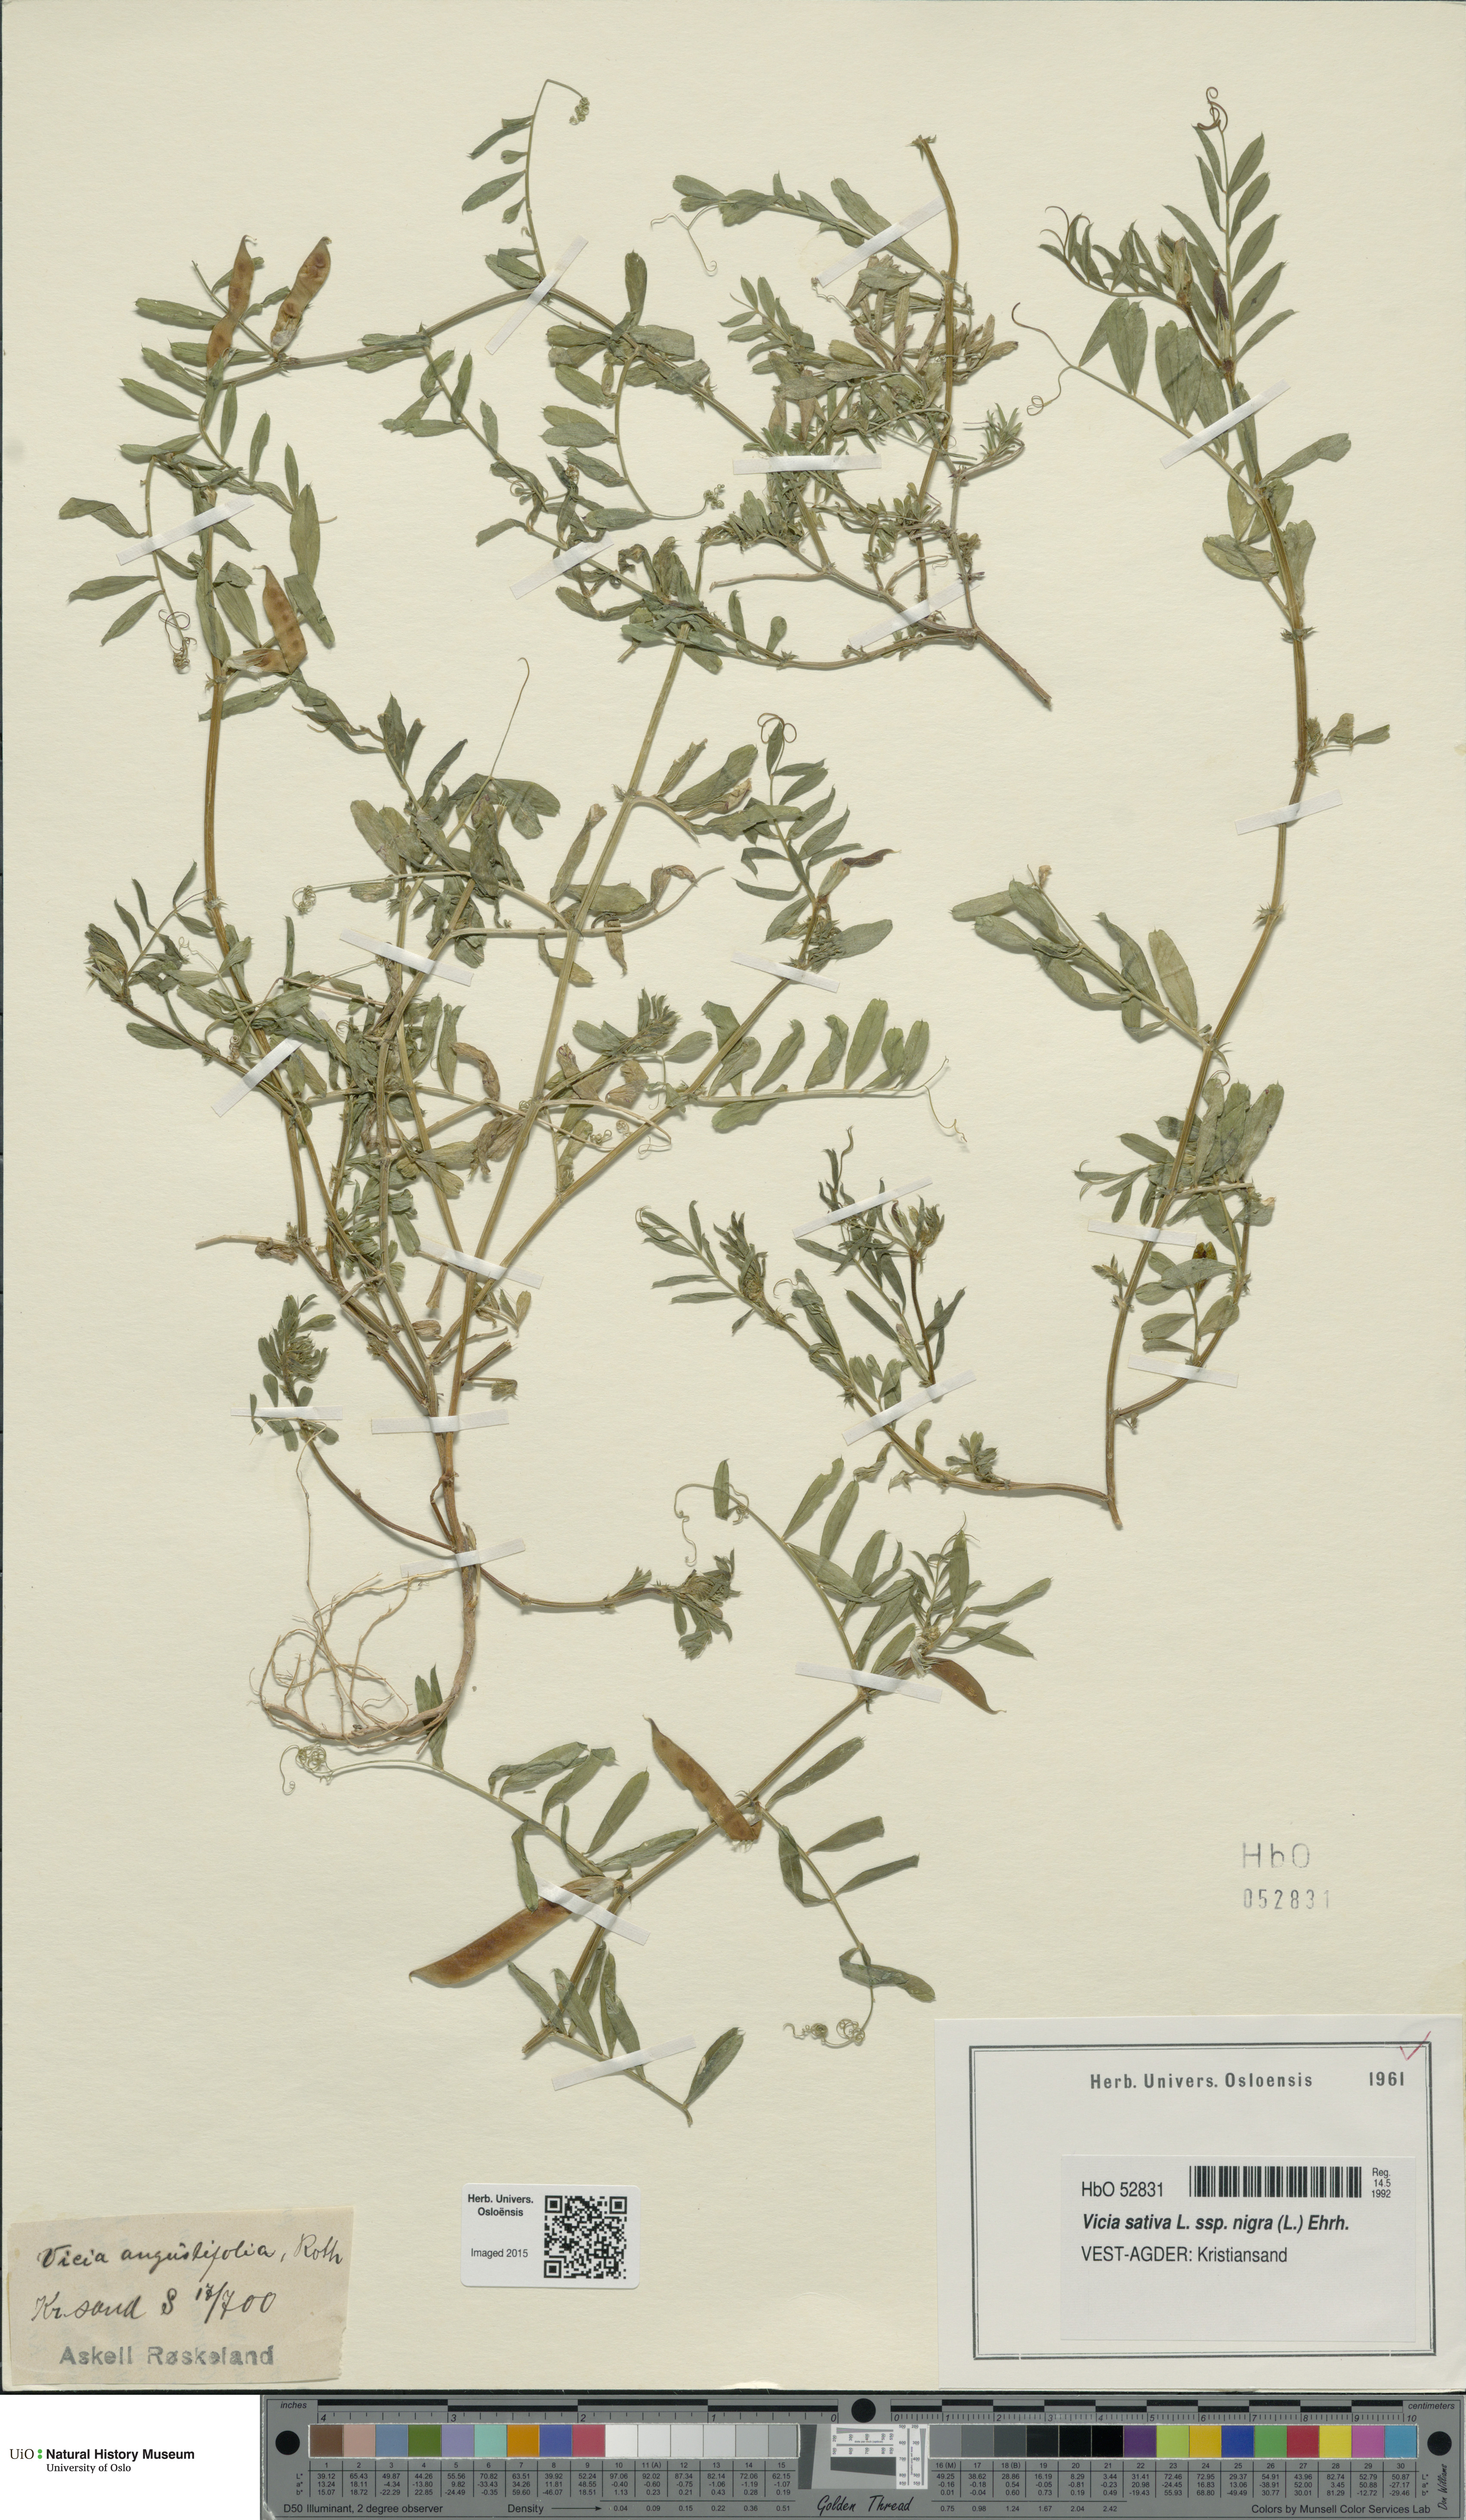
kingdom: Plantae
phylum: Tracheophyta
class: Magnoliopsida
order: Fabales
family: Fabaceae
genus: Vicia
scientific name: Vicia sativa
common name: Garden vetch
